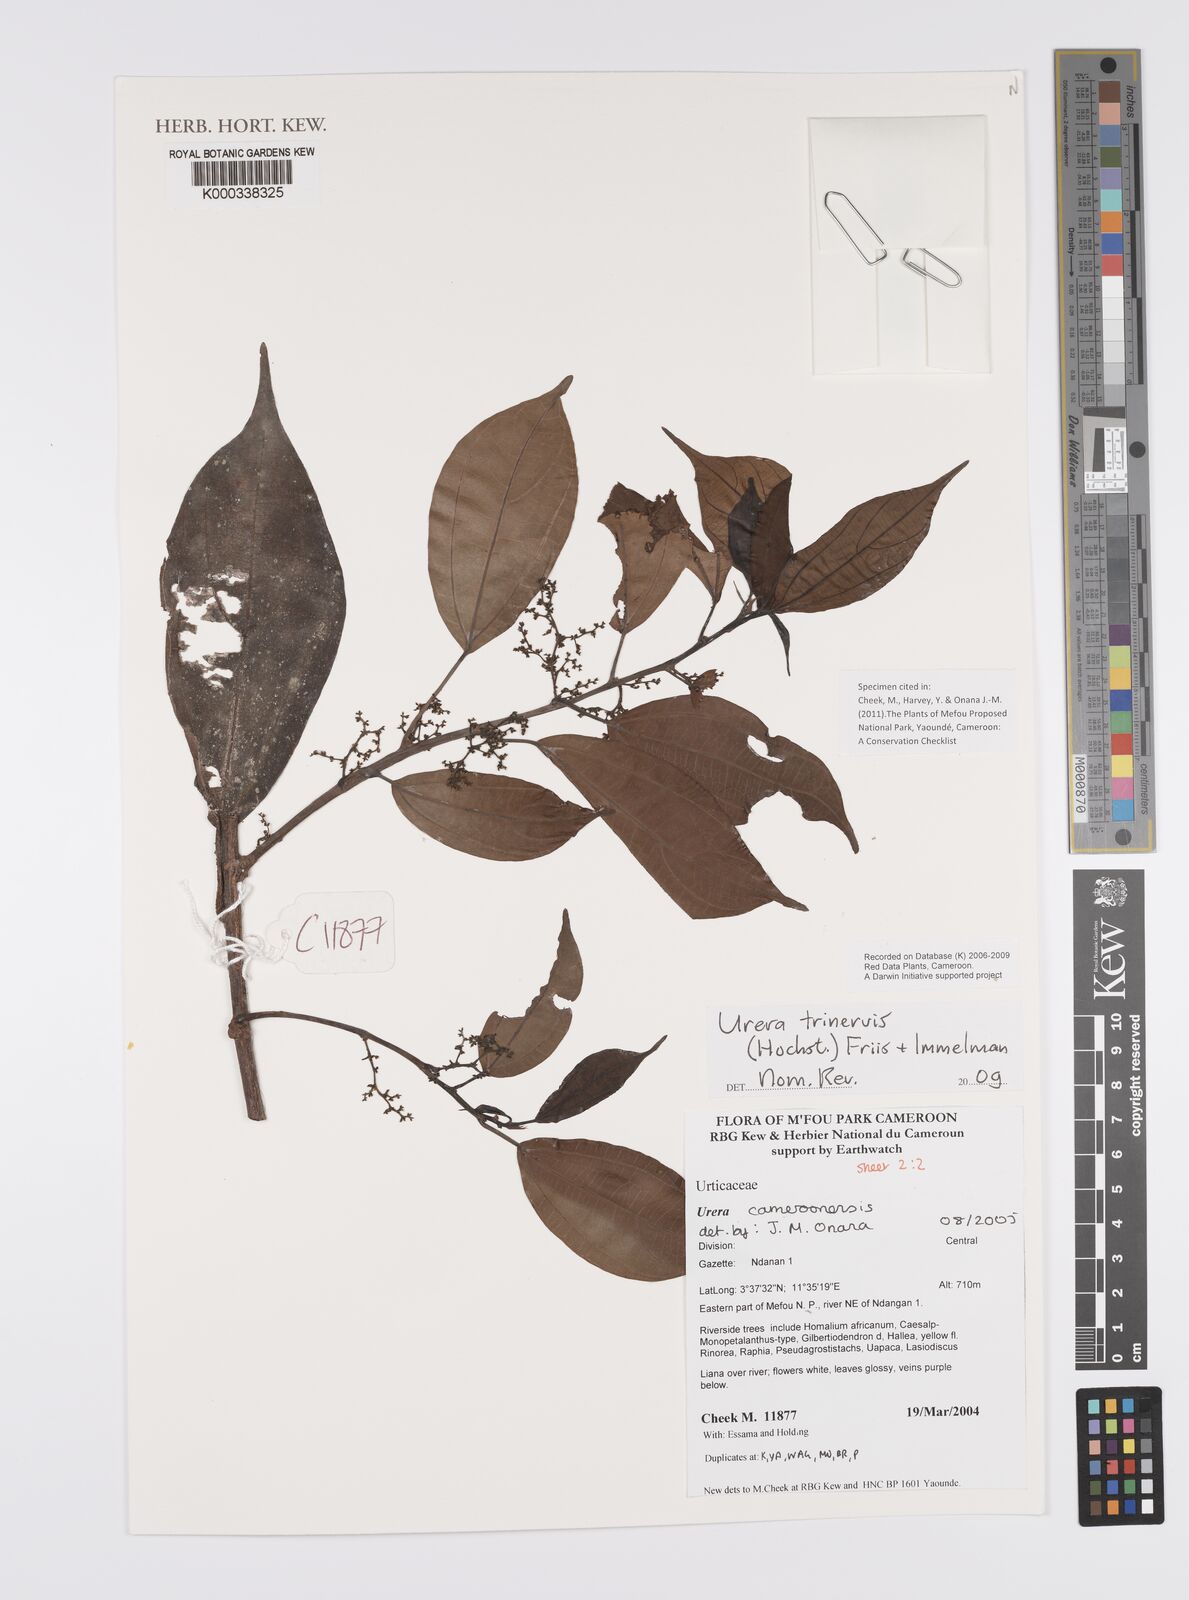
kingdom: Plantae
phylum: Tracheophyta
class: Magnoliopsida
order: Rosales
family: Urticaceae
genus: Scepocarpus
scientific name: Scepocarpus trinervis
